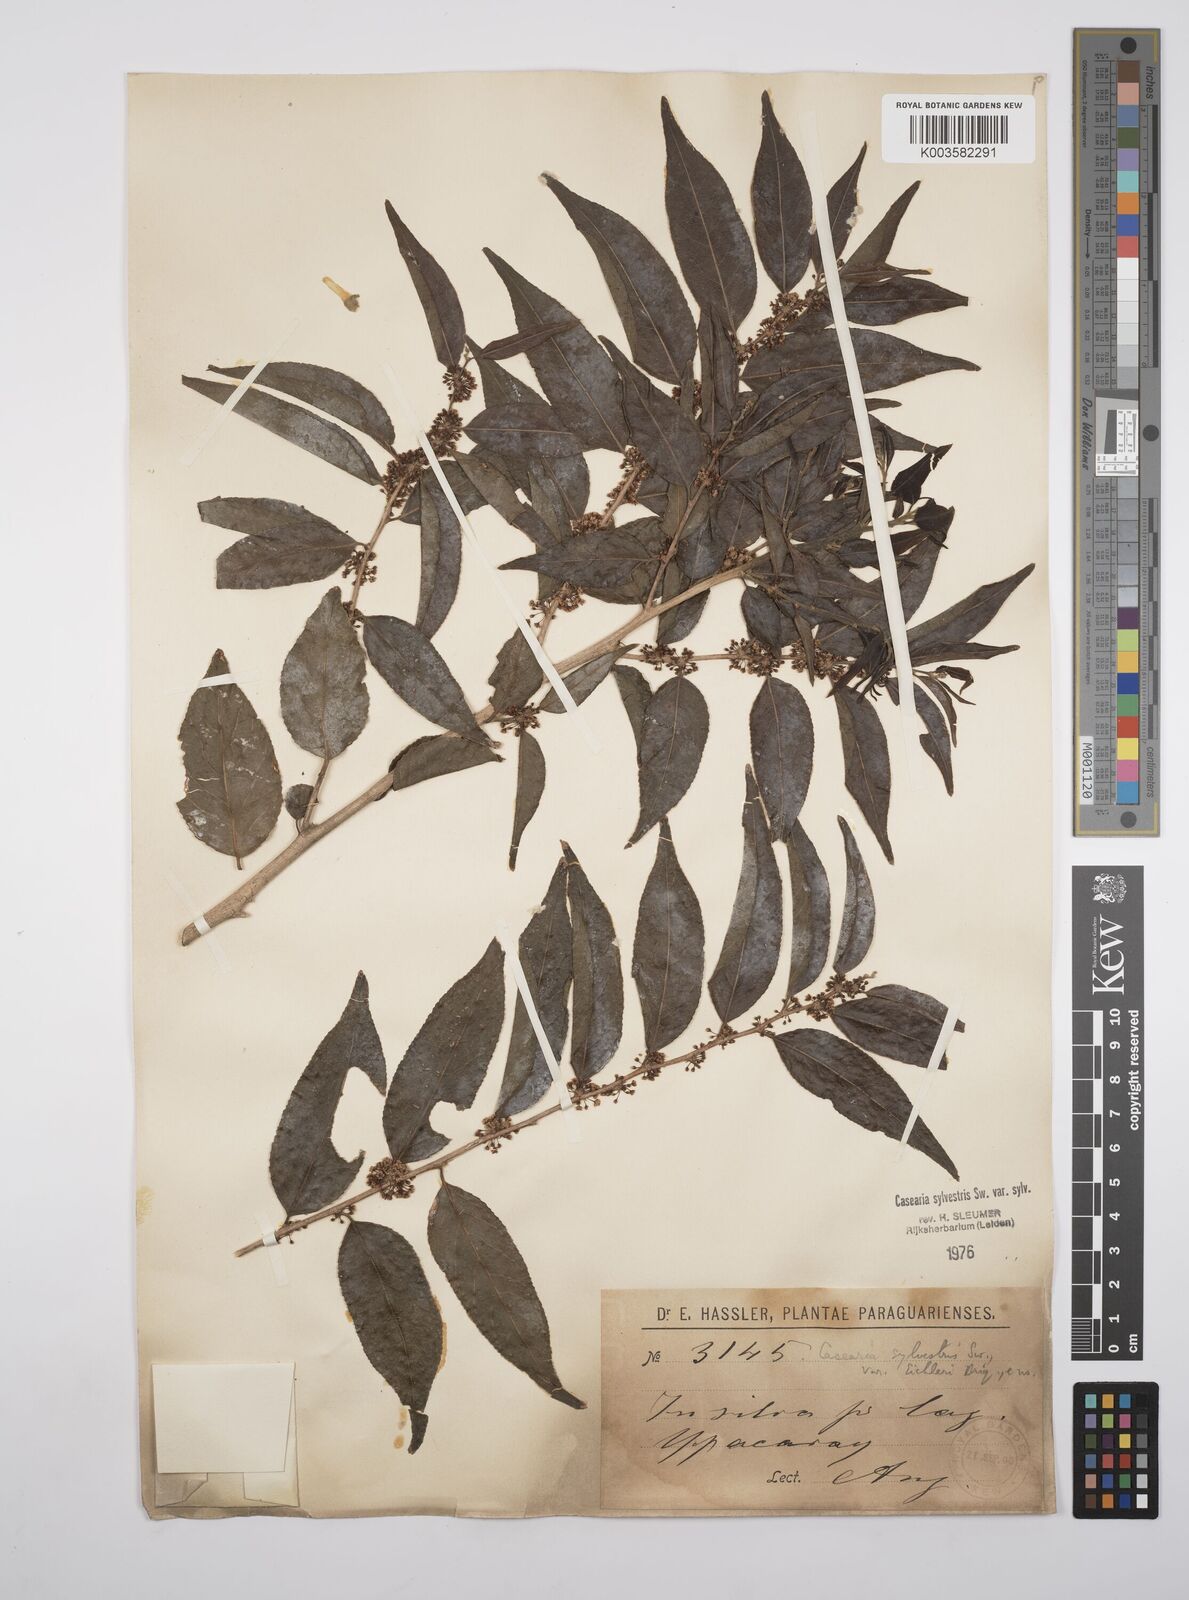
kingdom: Plantae
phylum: Tracheophyta
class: Magnoliopsida
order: Malpighiales
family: Salicaceae
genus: Casearia
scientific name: Casearia sylvestris
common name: Wild sage
